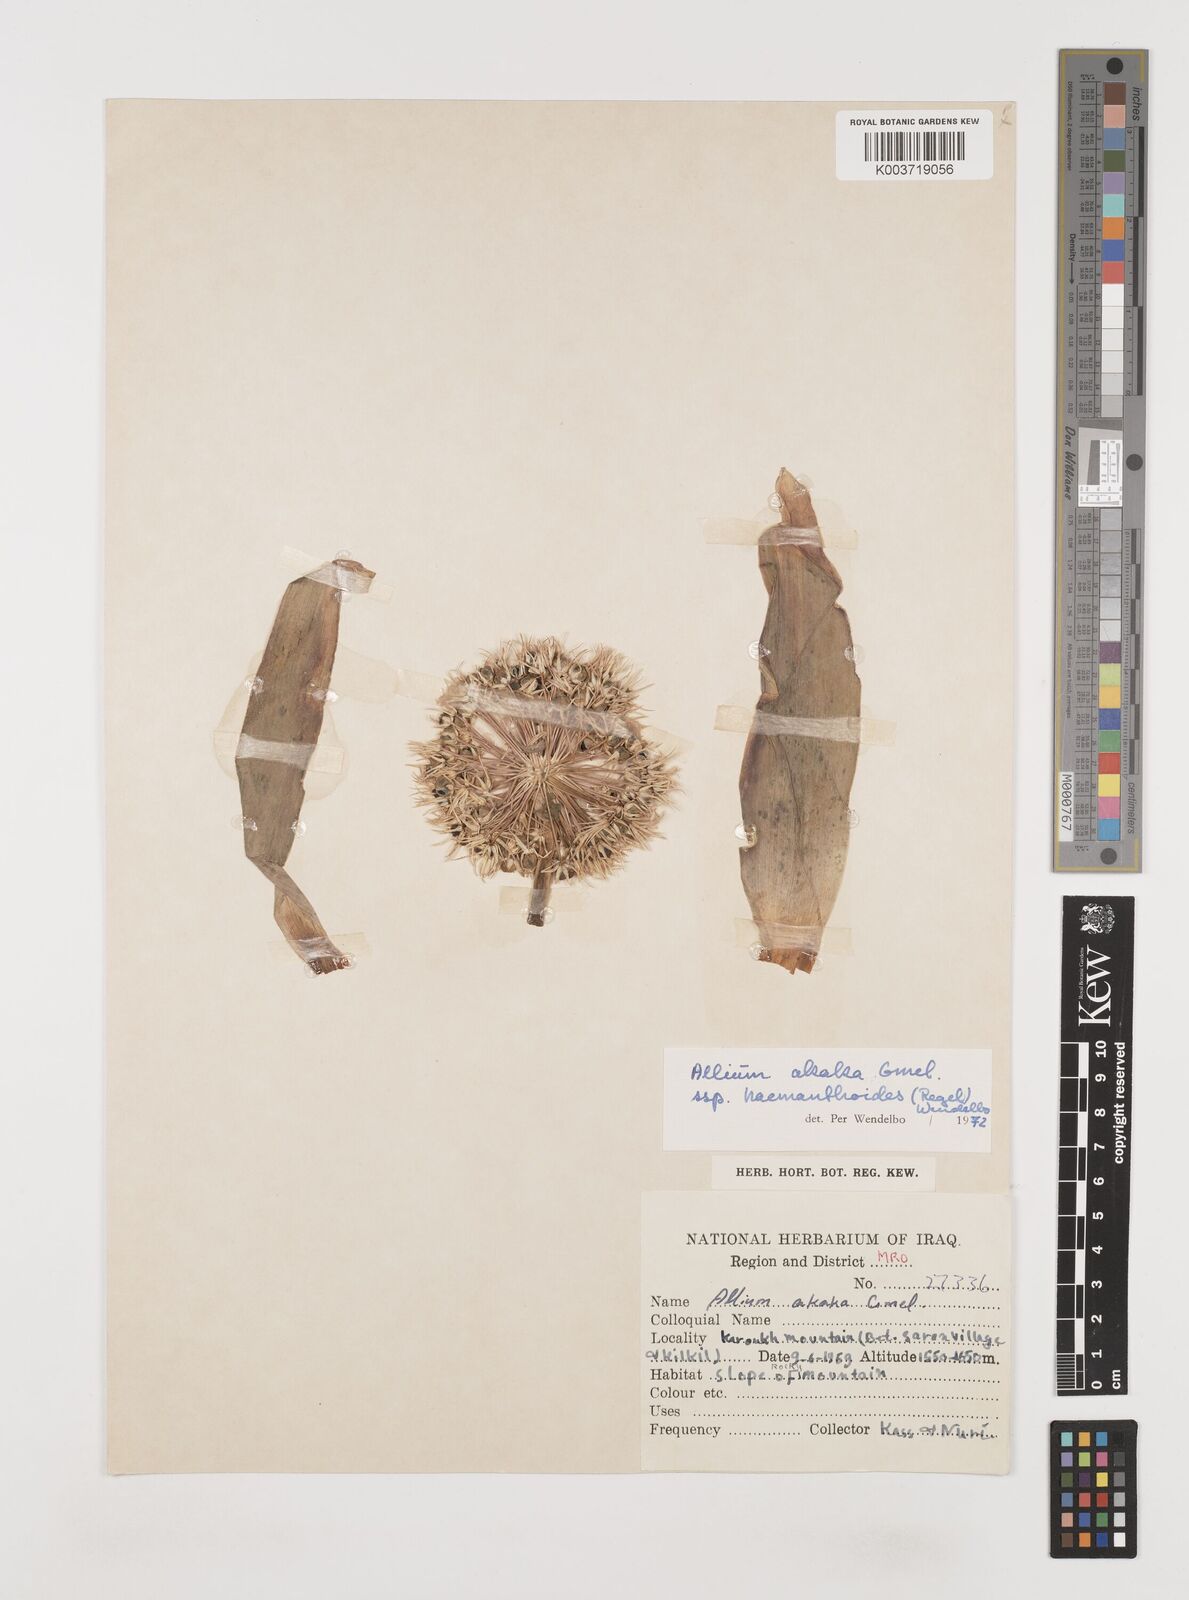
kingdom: Plantae
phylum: Tracheophyta
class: Liliopsida
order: Asparagales
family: Amaryllidaceae
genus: Allium
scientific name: Allium haemanthoides
